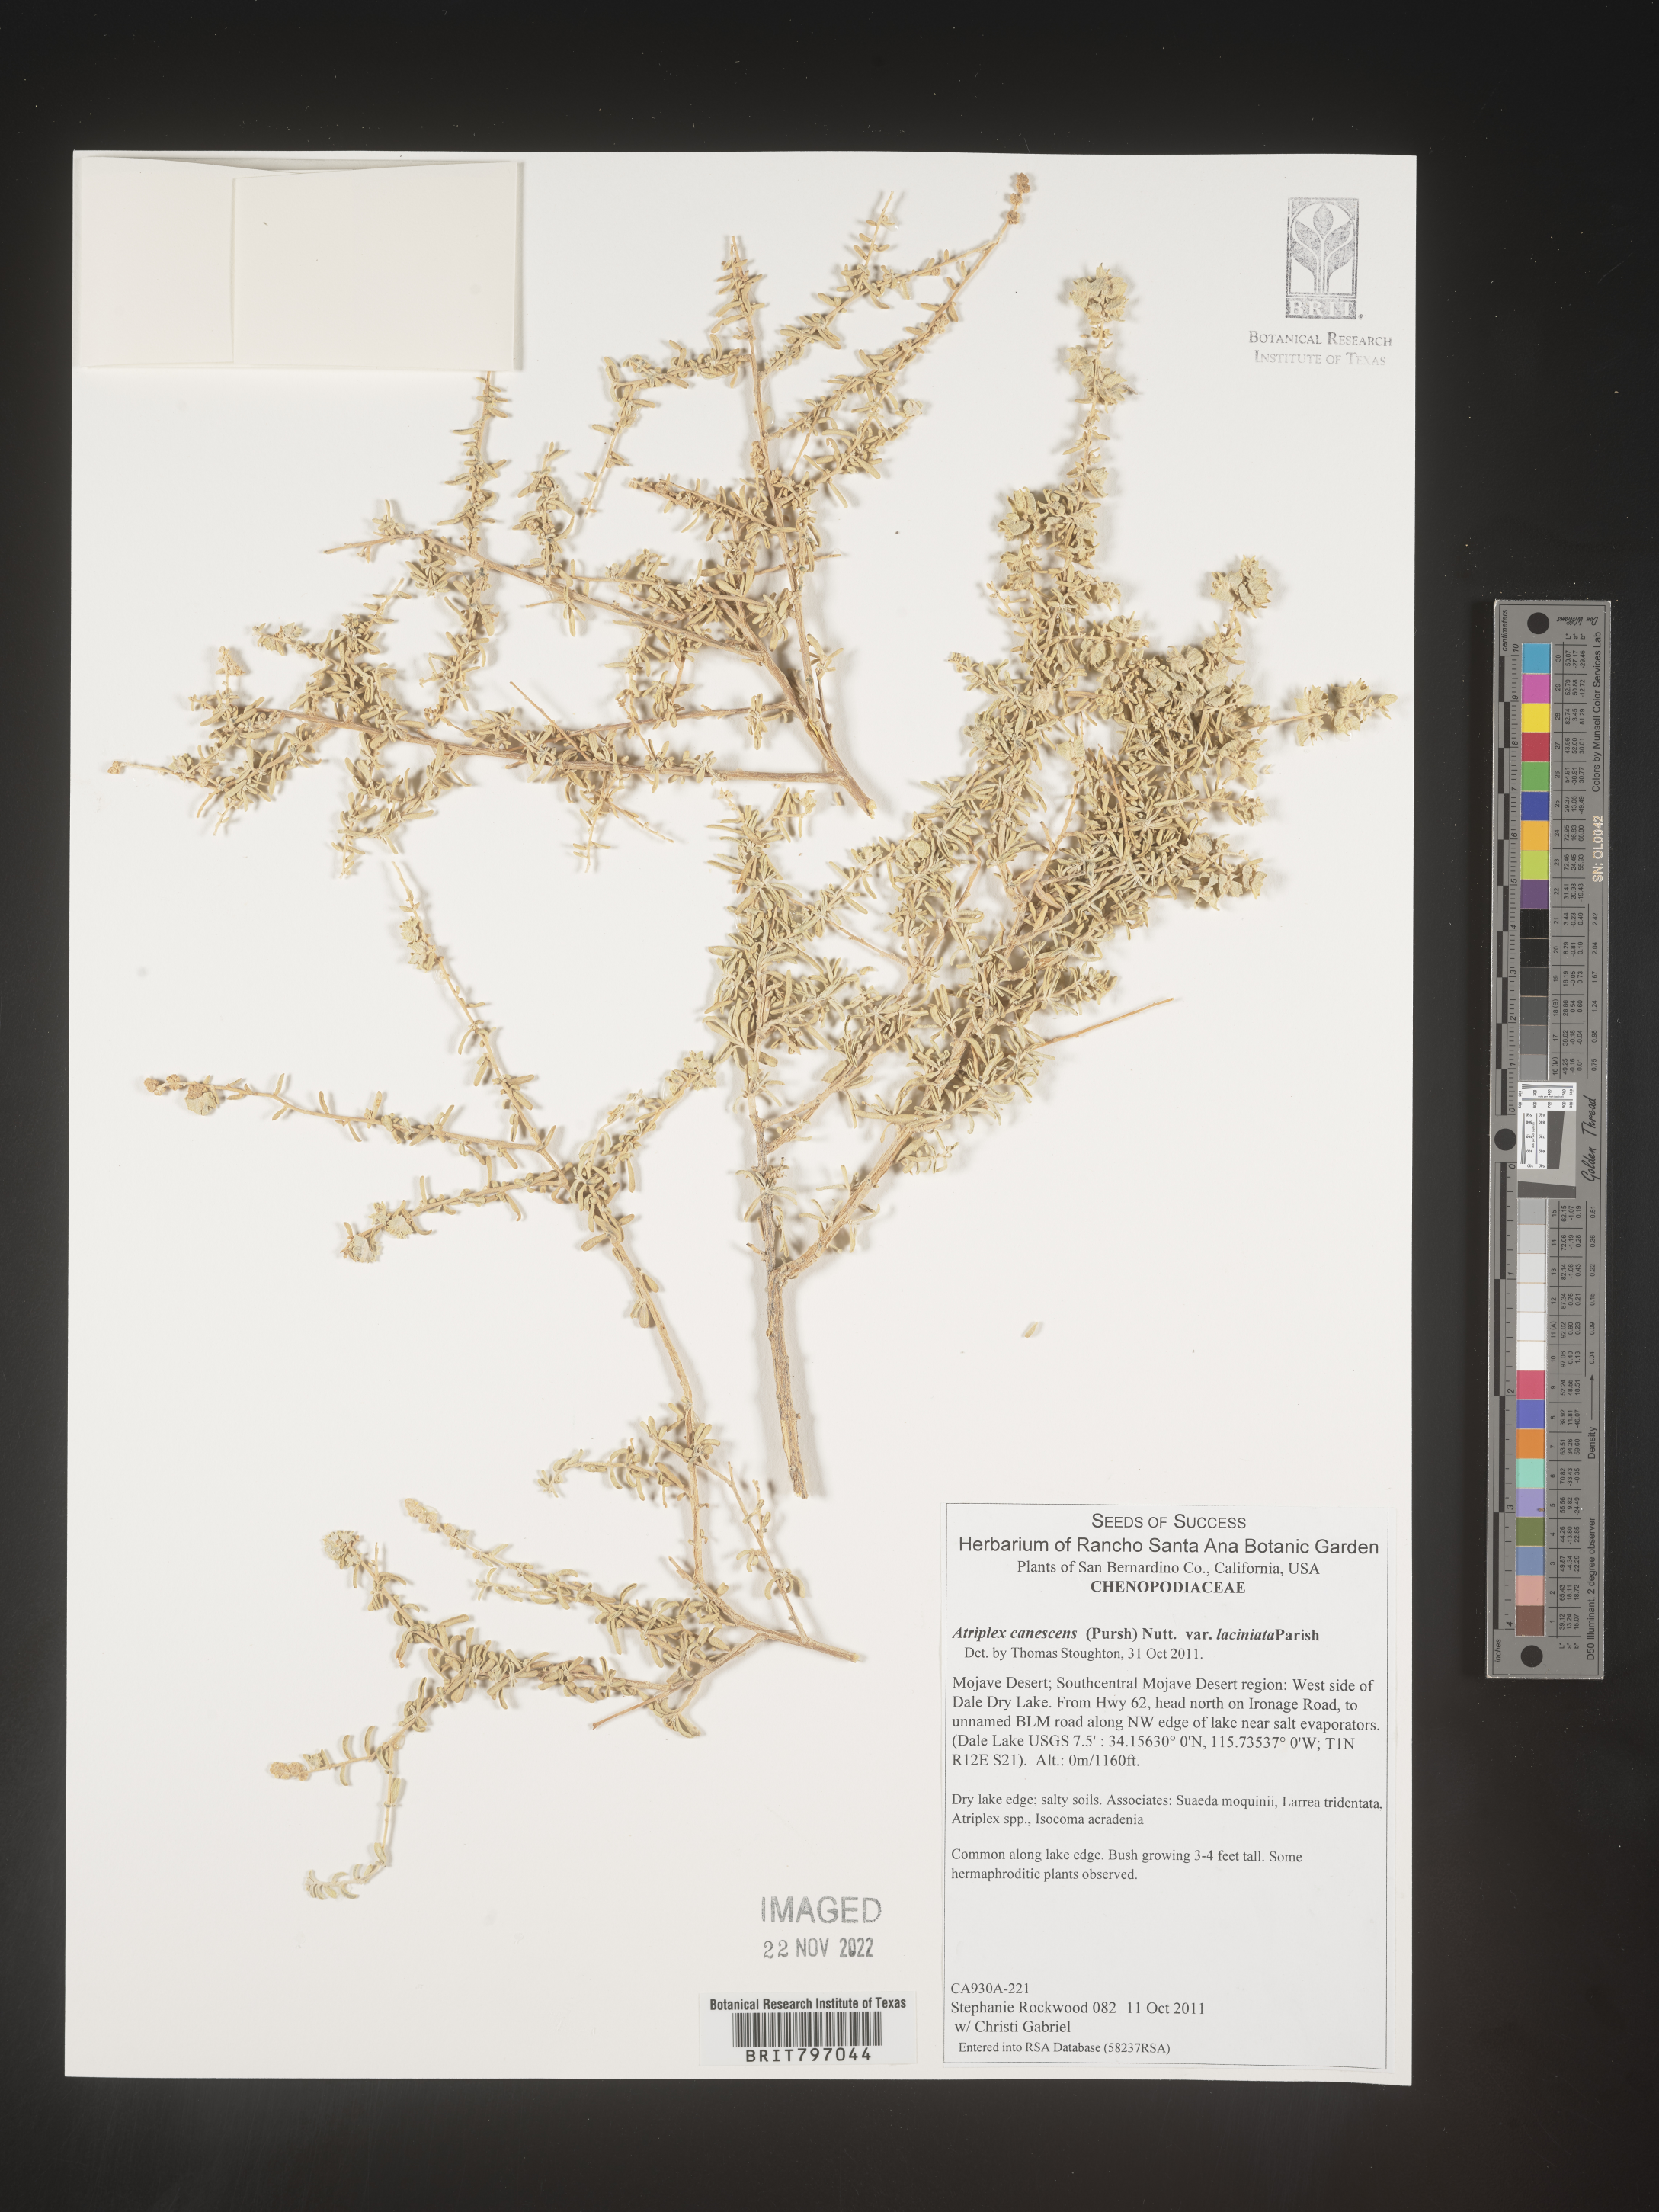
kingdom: Plantae
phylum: Tracheophyta
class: Magnoliopsida
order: Caryophyllales
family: Amaranthaceae
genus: Atriplex
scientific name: Atriplex canescens
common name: Four-wing saltbush
